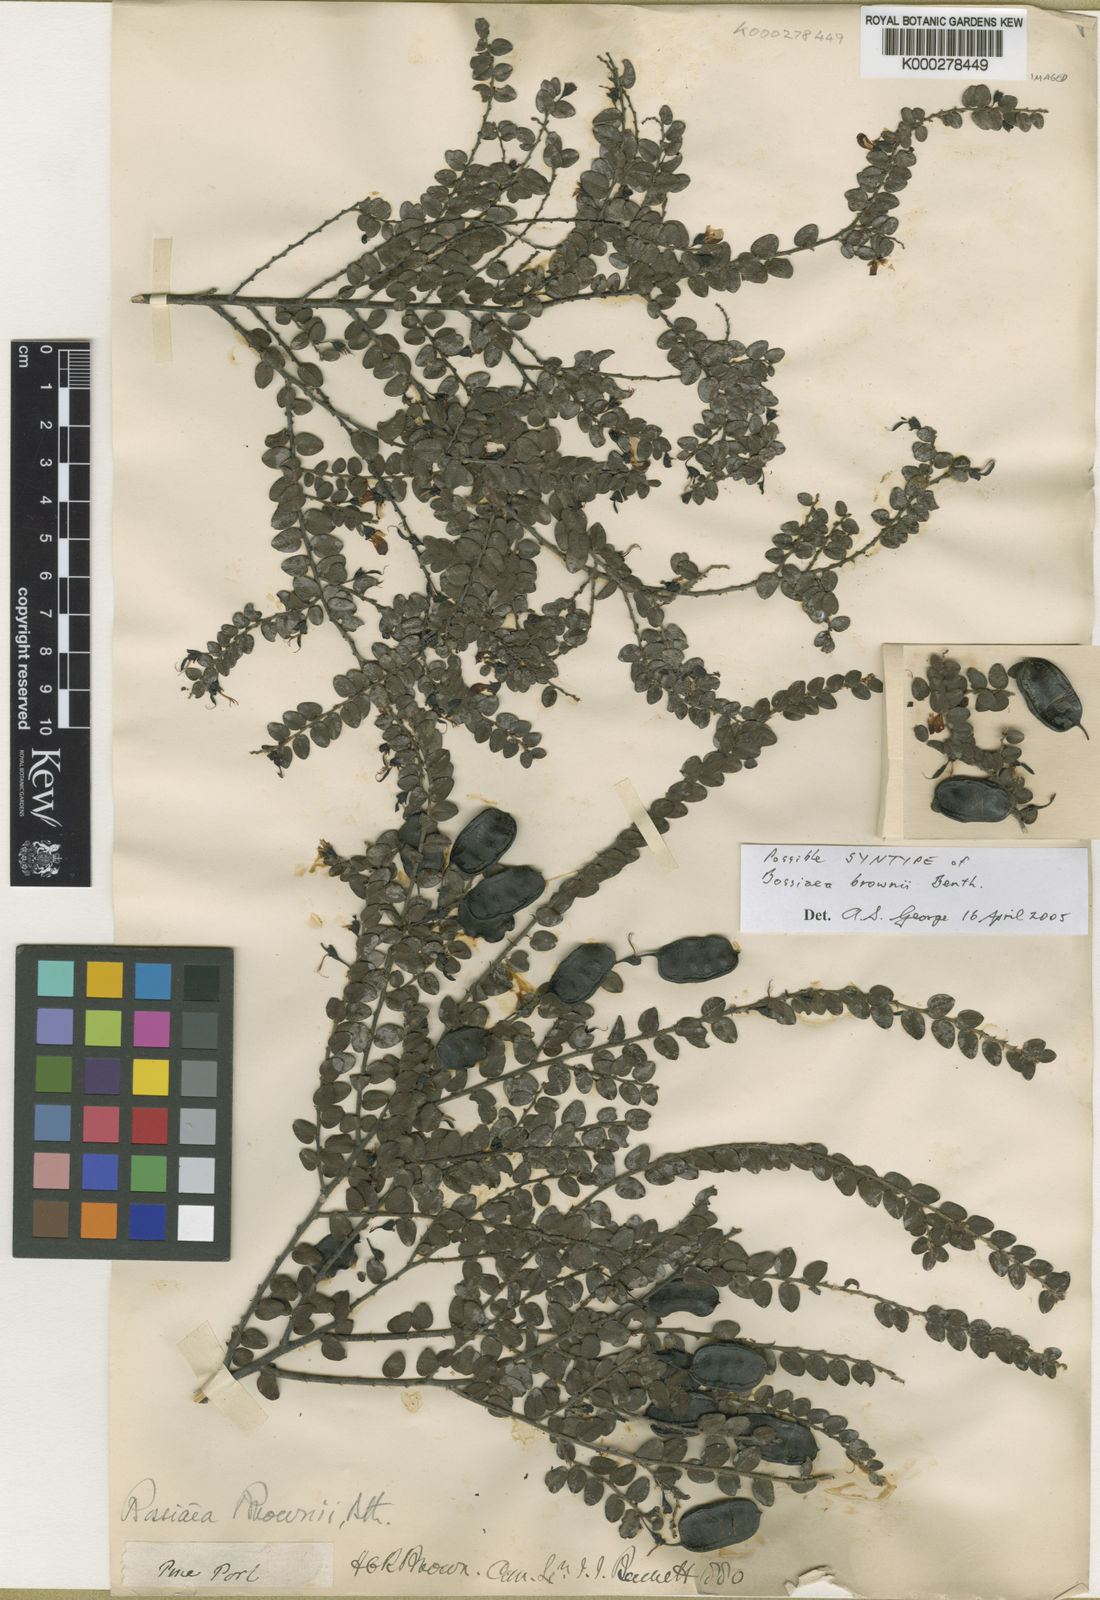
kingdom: Plantae
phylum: Tracheophyta
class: Magnoliopsida
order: Fabales
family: Fabaceae
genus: Bossiaea
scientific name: Bossiaea brownii
